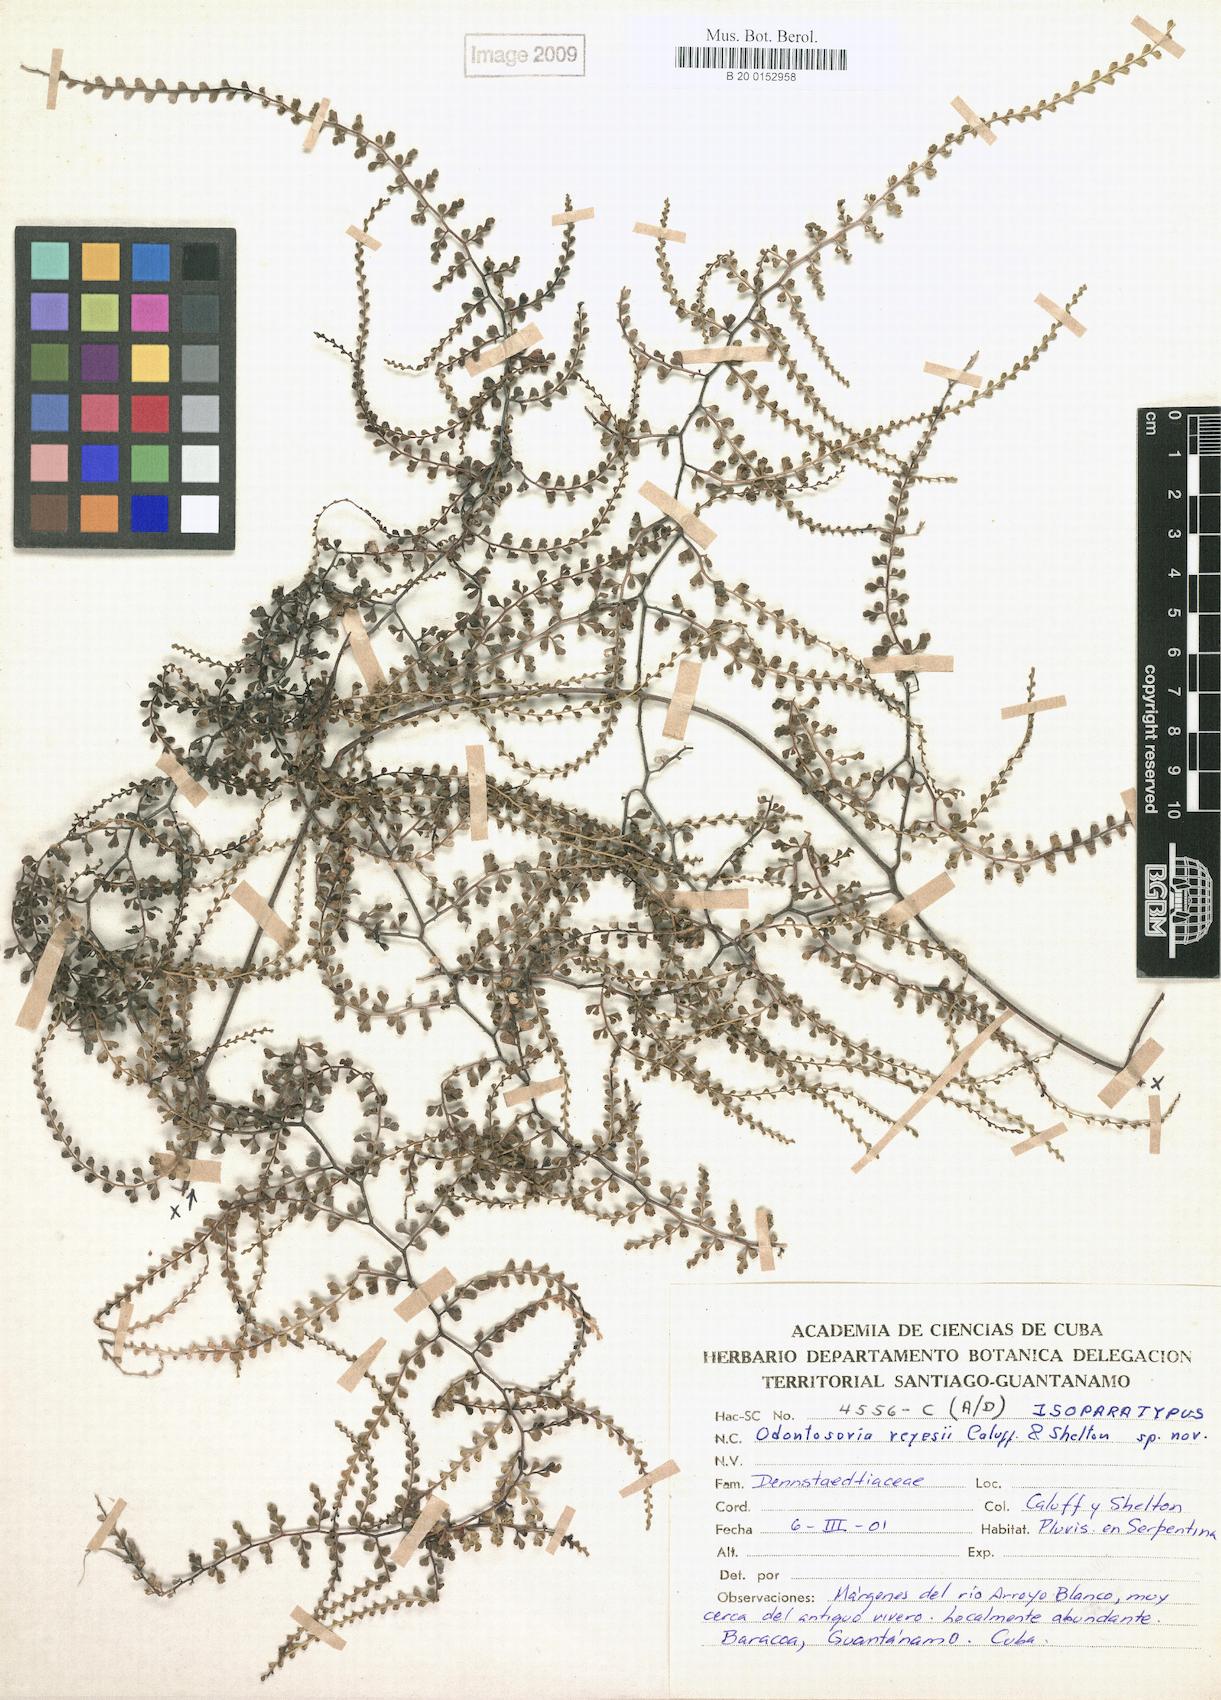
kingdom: Plantae
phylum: Tracheophyta
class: Polypodiopsida
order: Polypodiales
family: Lindsaeaceae
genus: Odontosoria
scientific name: Odontosoria reyesii
